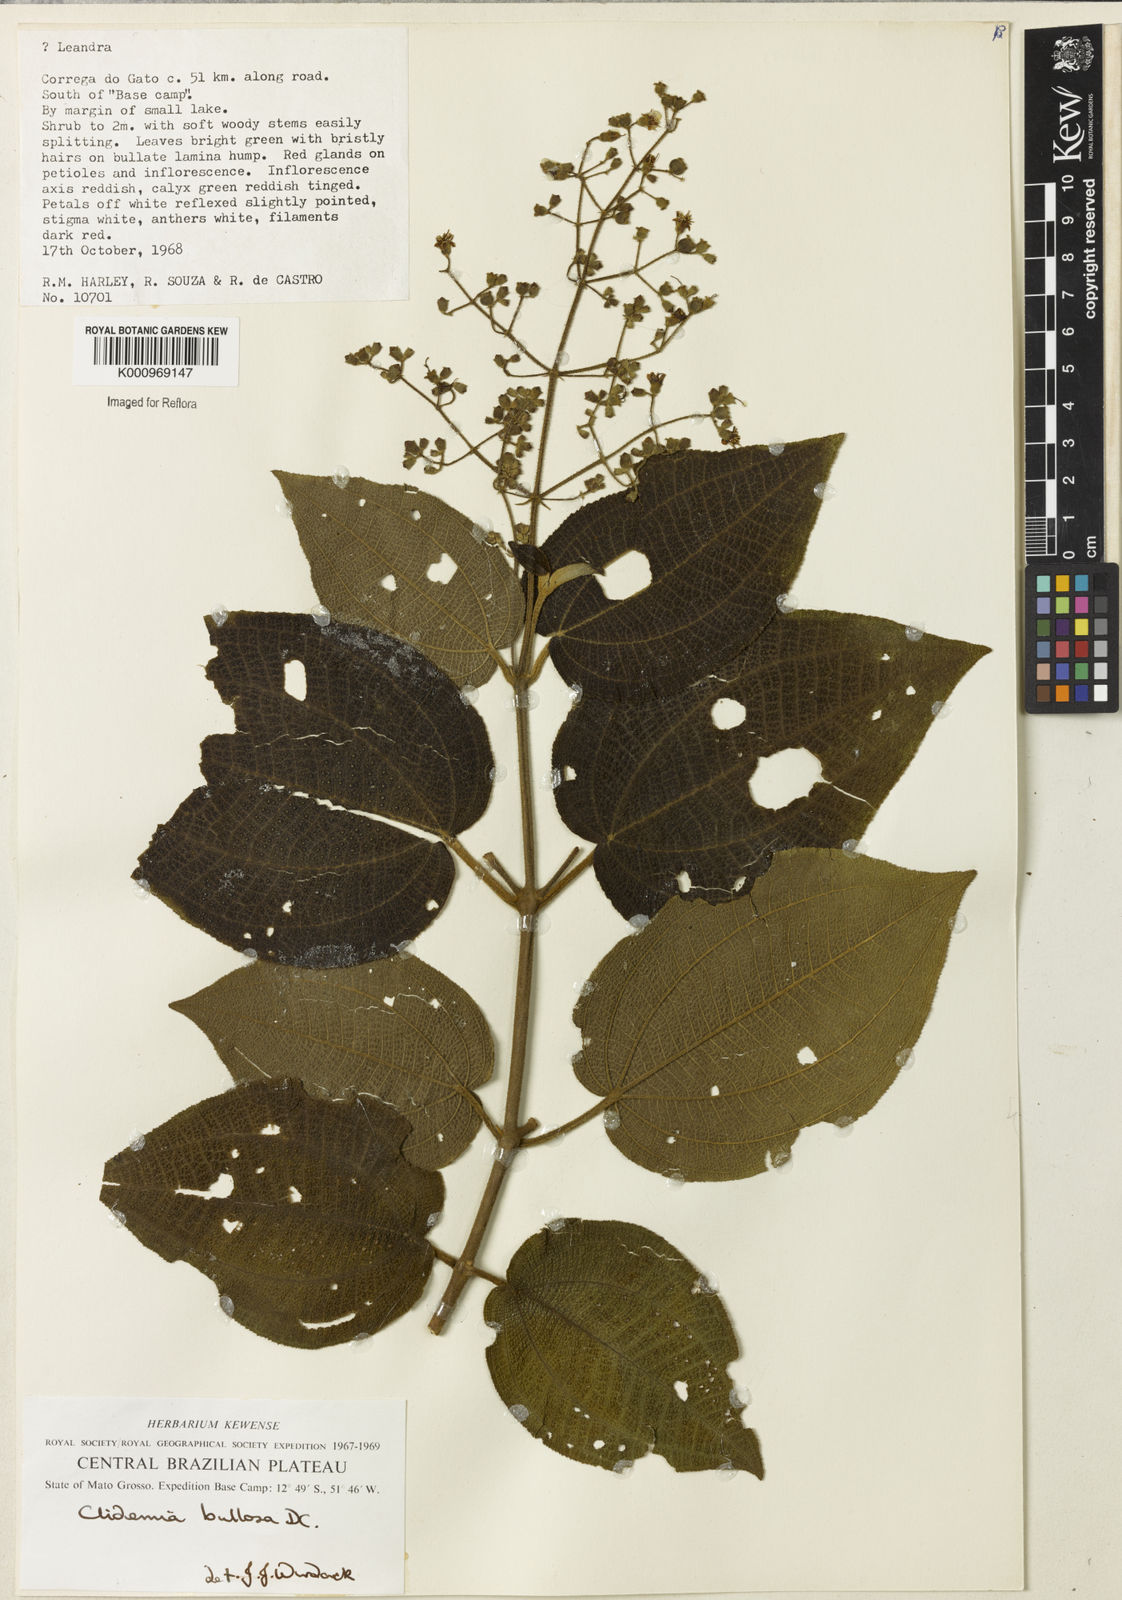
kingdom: Plantae
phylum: Tracheophyta
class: Magnoliopsida
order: Myrtales
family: Melastomataceae
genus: Miconia
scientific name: Miconia biserrata
